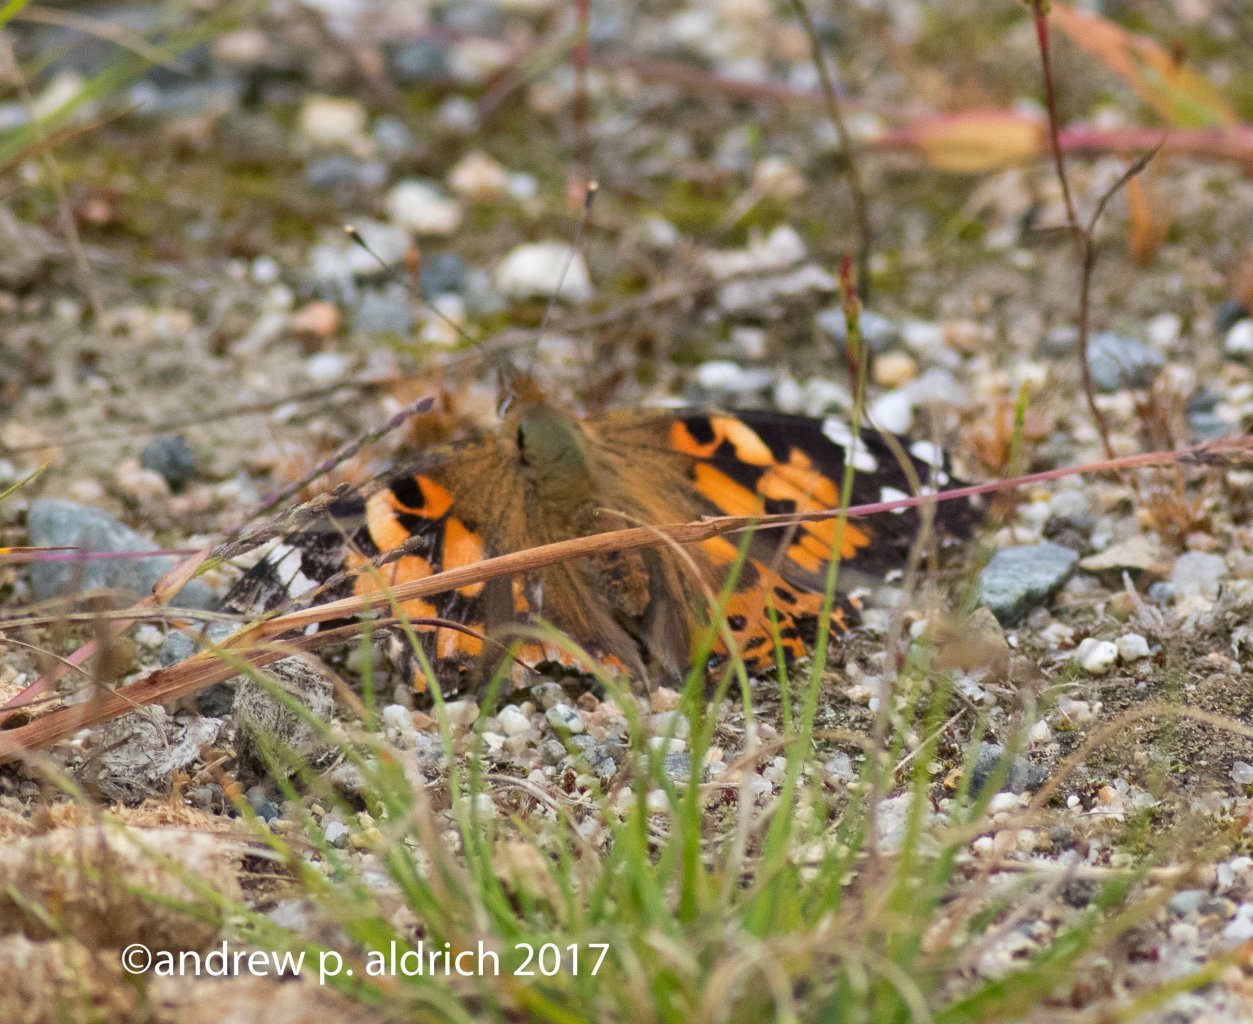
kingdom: Animalia
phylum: Arthropoda
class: Insecta
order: Lepidoptera
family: Nymphalidae
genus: Vanessa
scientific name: Vanessa cardui
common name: Painted Lady
